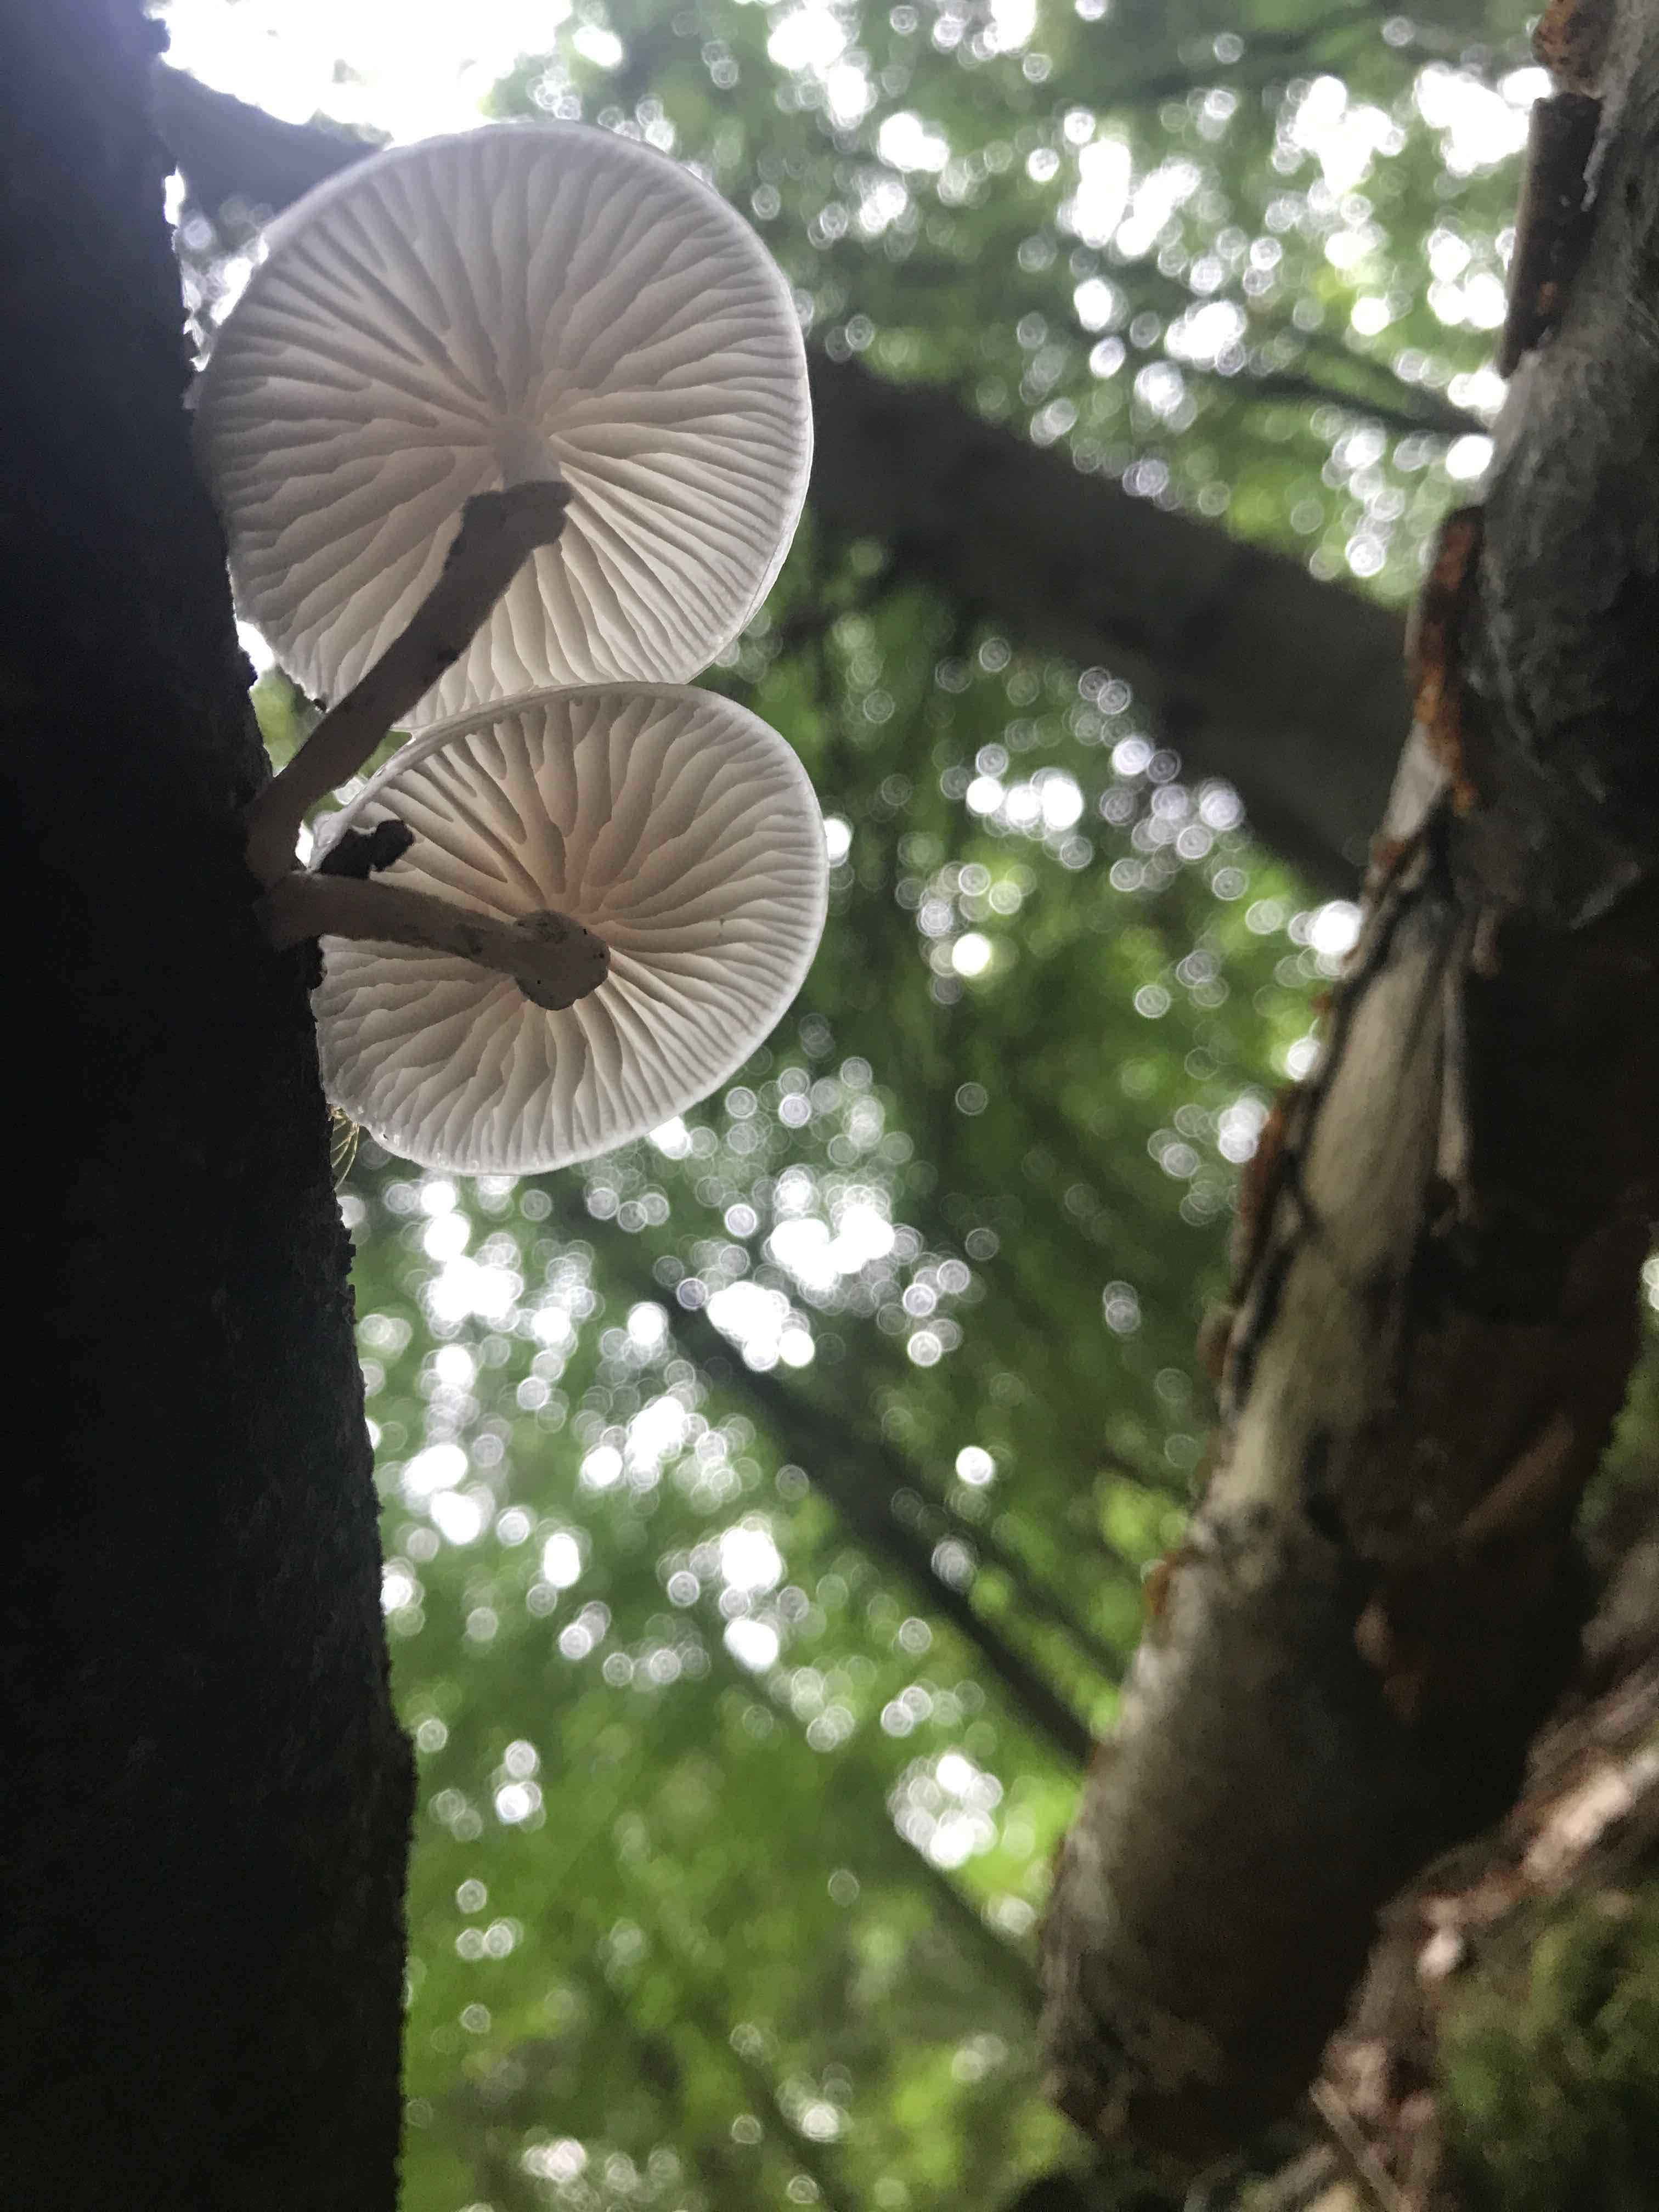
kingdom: Fungi
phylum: Basidiomycota
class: Agaricomycetes
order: Agaricales
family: Physalacriaceae
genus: Mucidula
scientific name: Mucidula mucida
